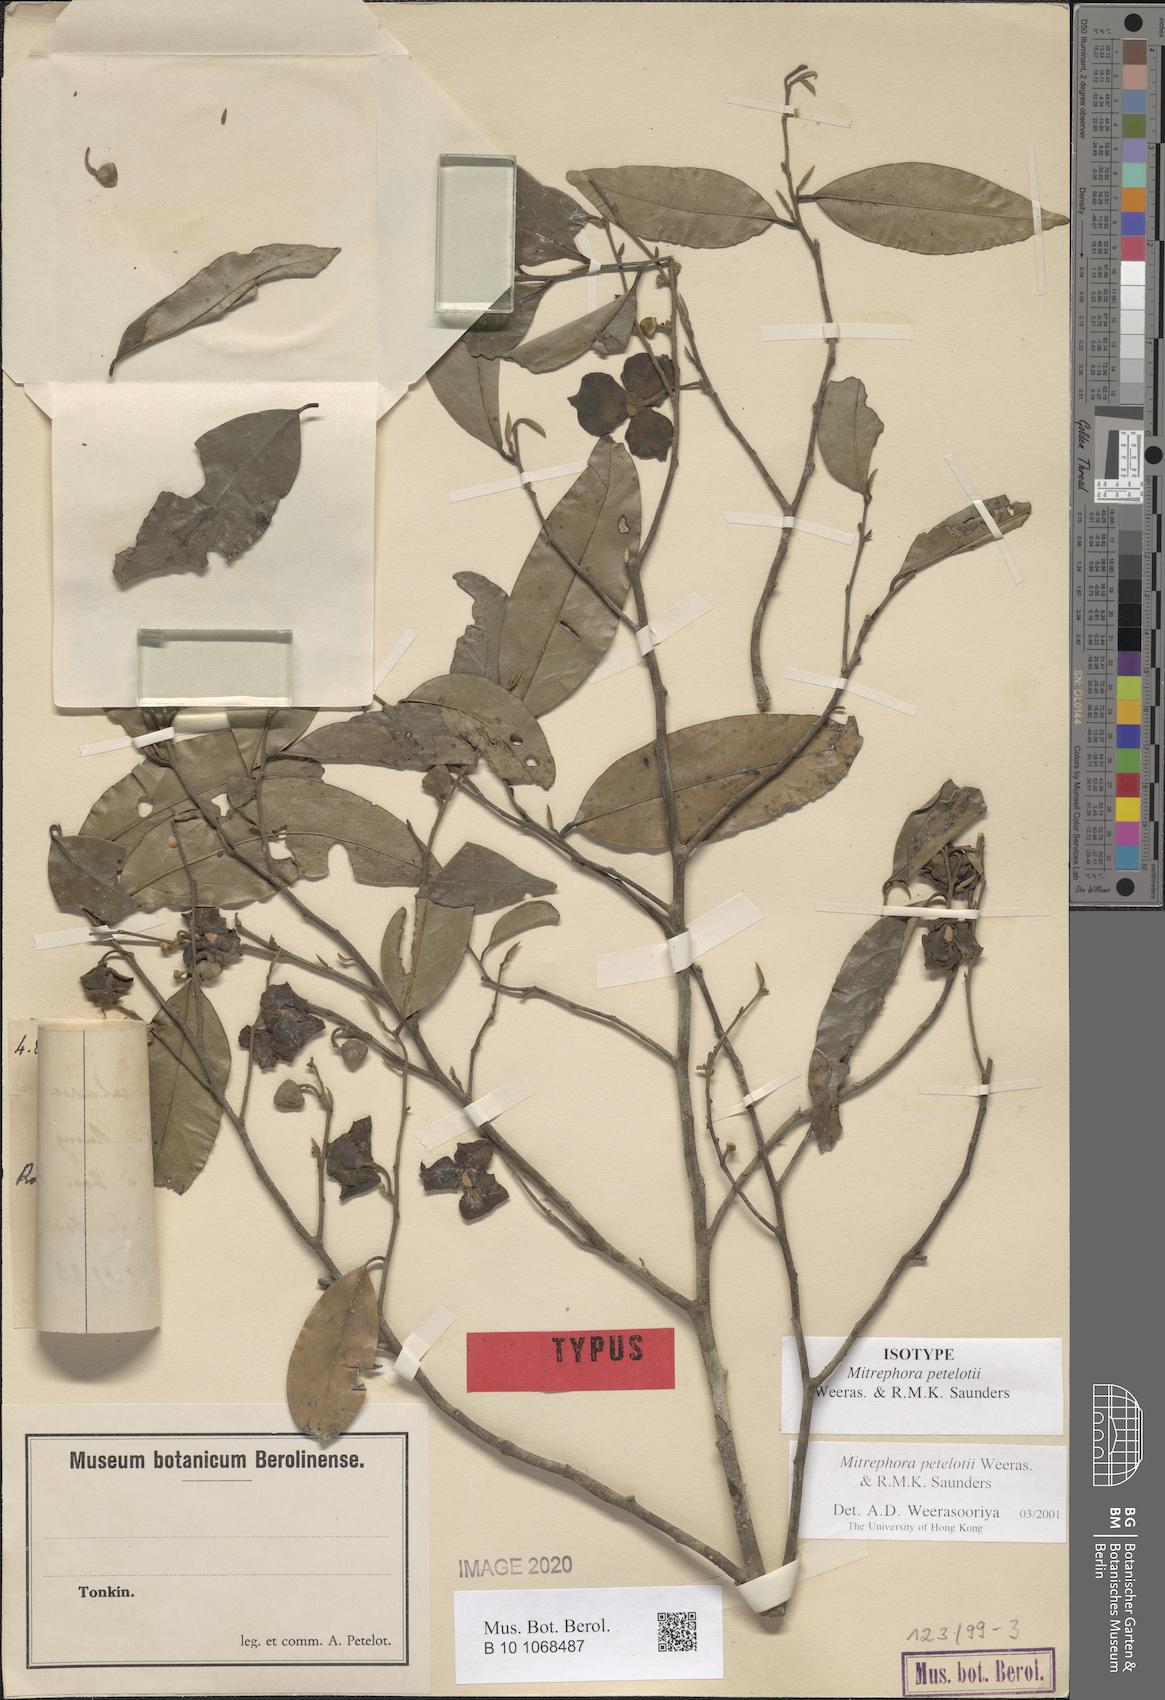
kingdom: Plantae
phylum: Tracheophyta
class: Magnoliopsida
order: Magnoliales
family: Annonaceae
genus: Mitrephora
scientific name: Mitrephora petelotii
